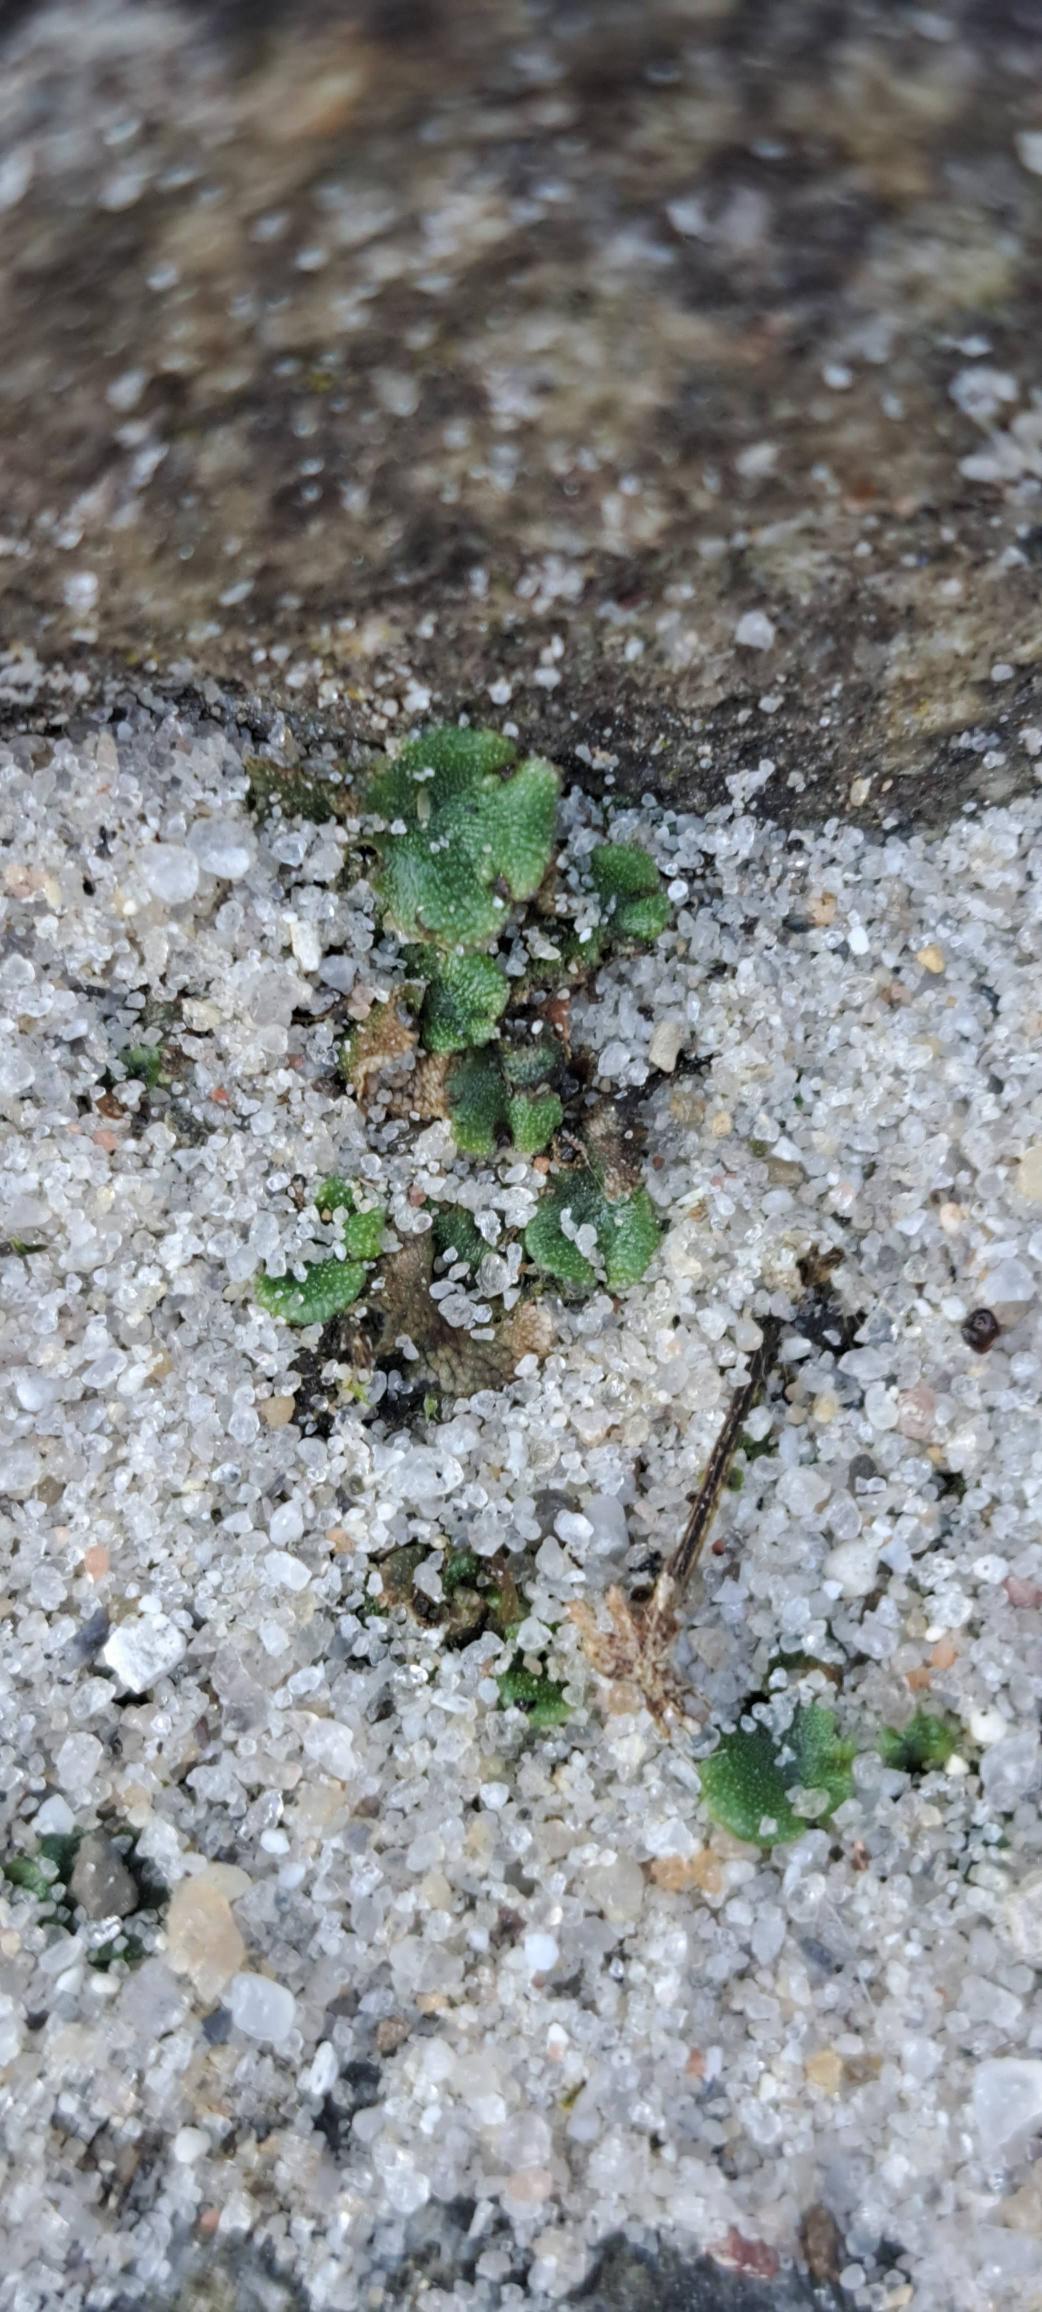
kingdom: Plantae
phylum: Marchantiophyta
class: Marchantiopsida
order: Marchantiales
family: Marchantiaceae
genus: Marchantia
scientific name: Marchantia polymorpha
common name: Almindelig lungemos (underart)
